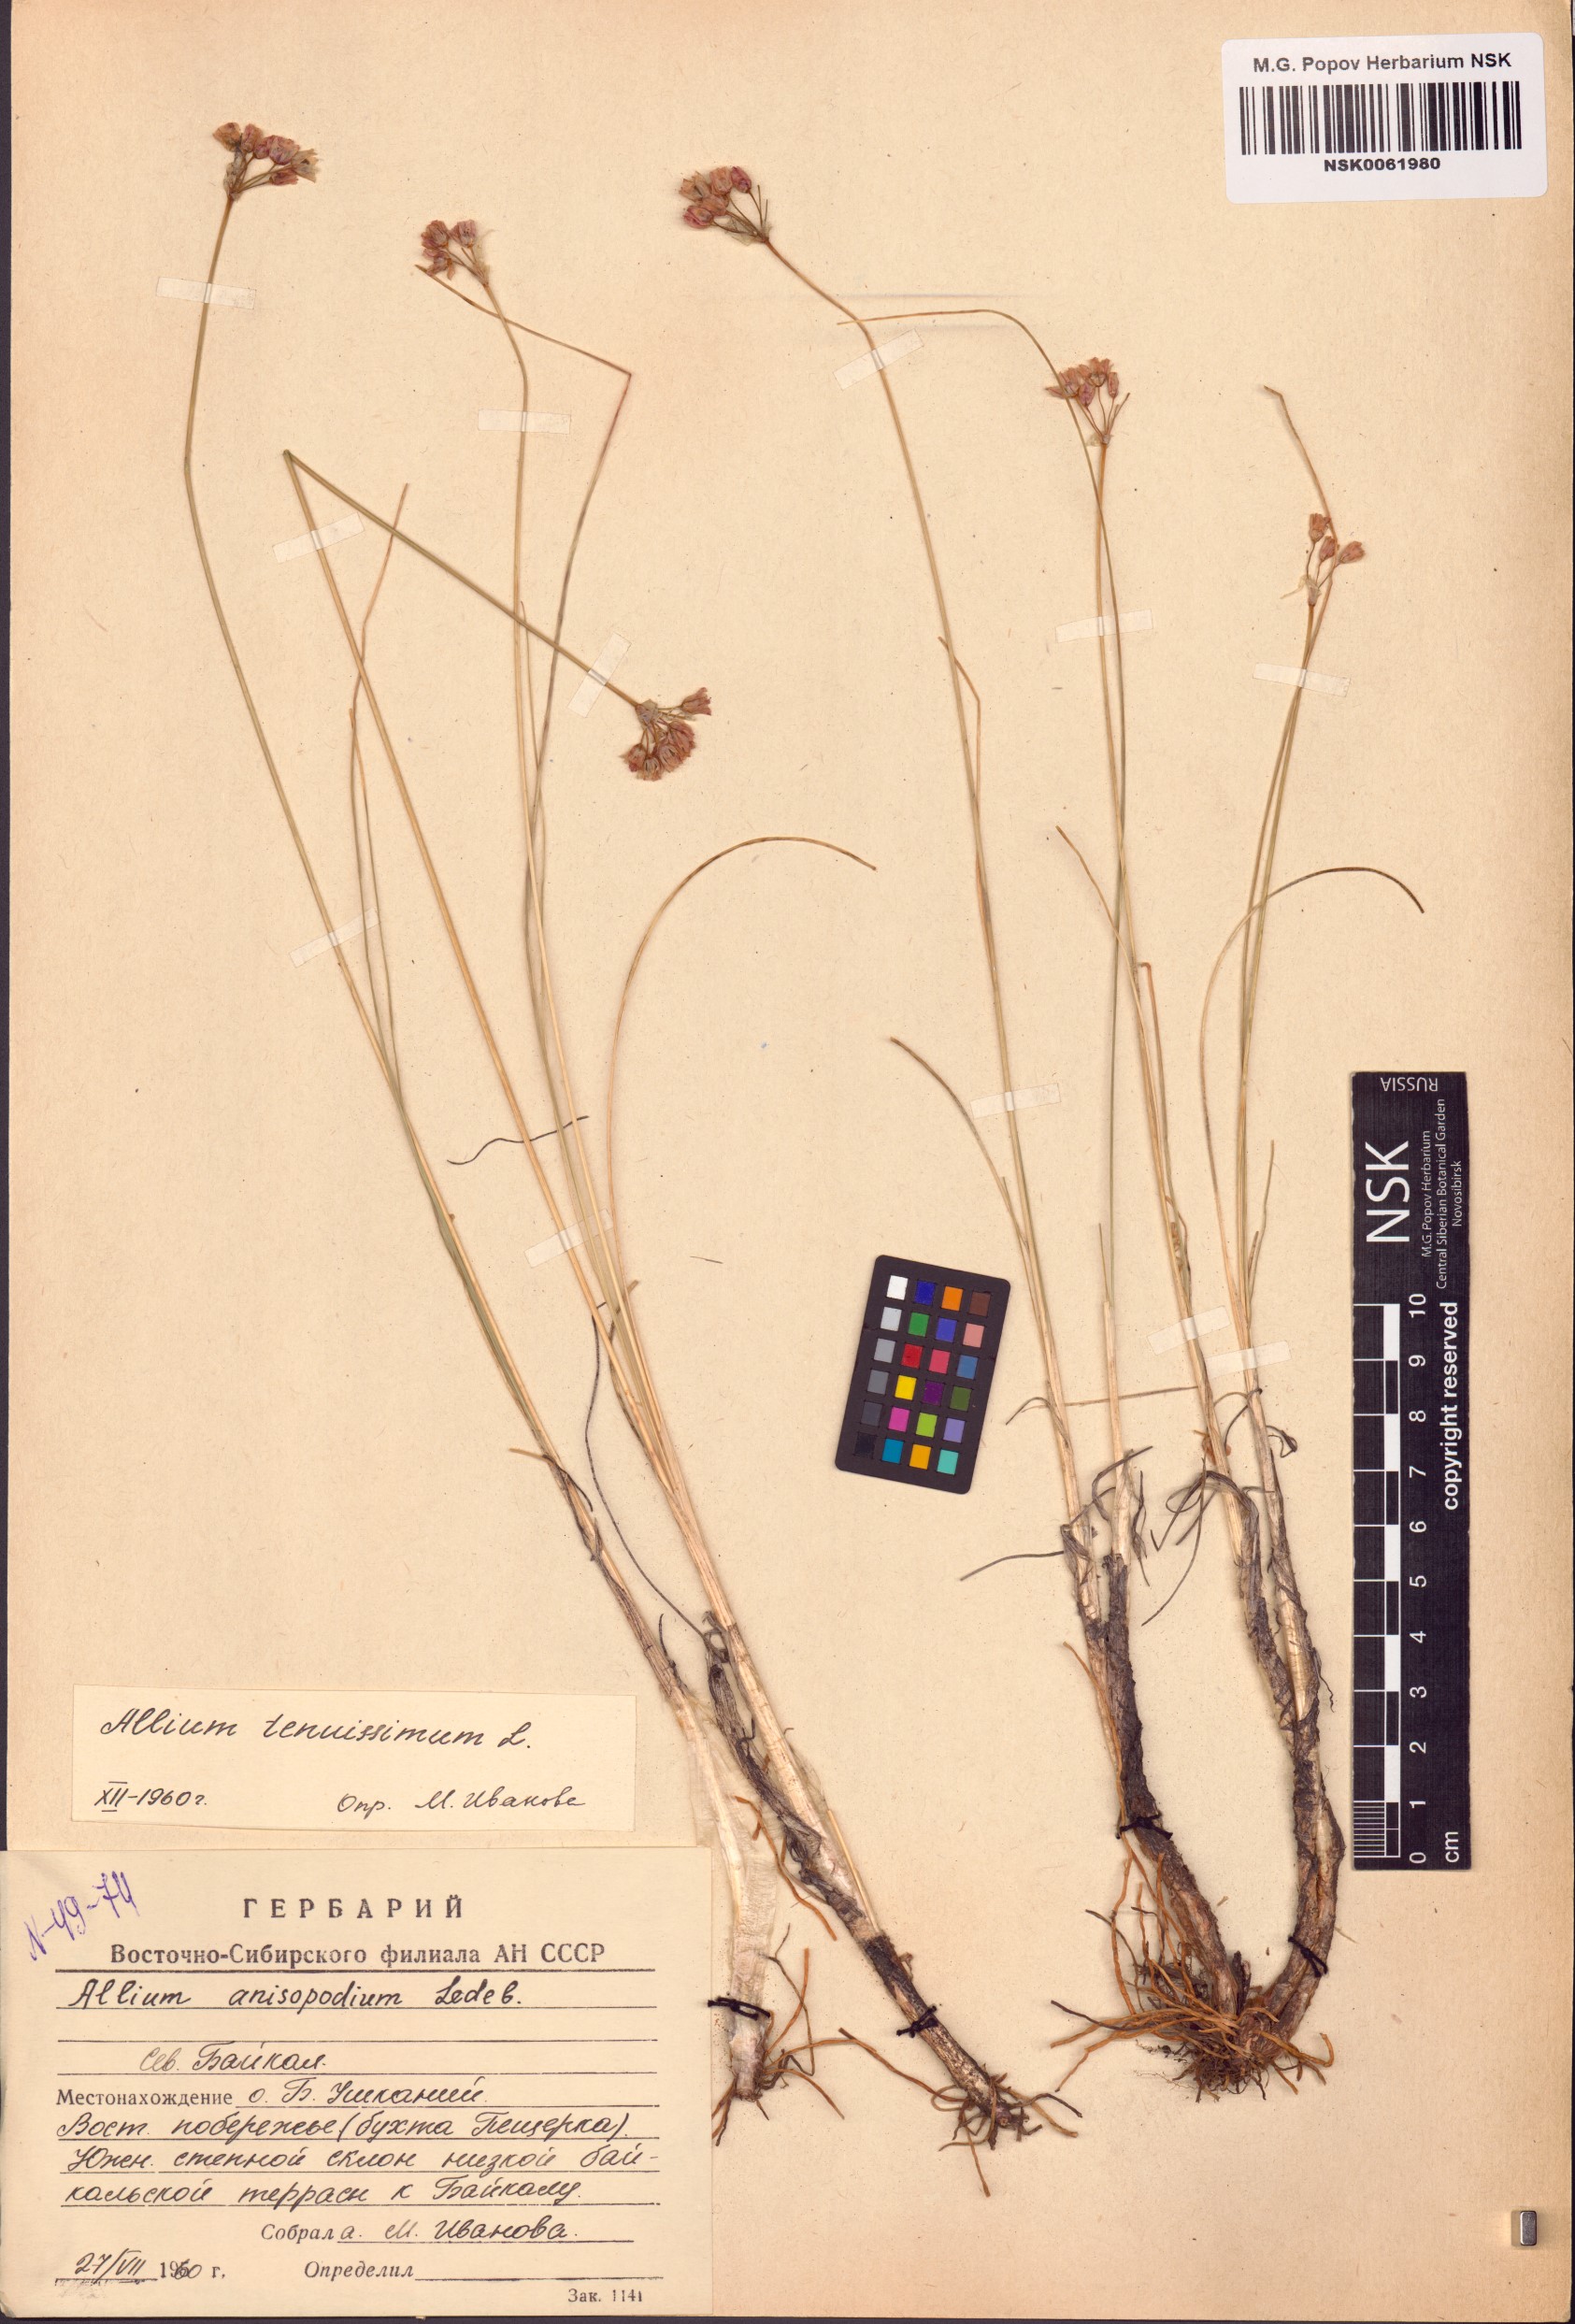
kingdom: Plantae
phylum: Tracheophyta
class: Liliopsida
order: Asparagales
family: Amaryllidaceae
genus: Allium
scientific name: Allium tenuissimum
